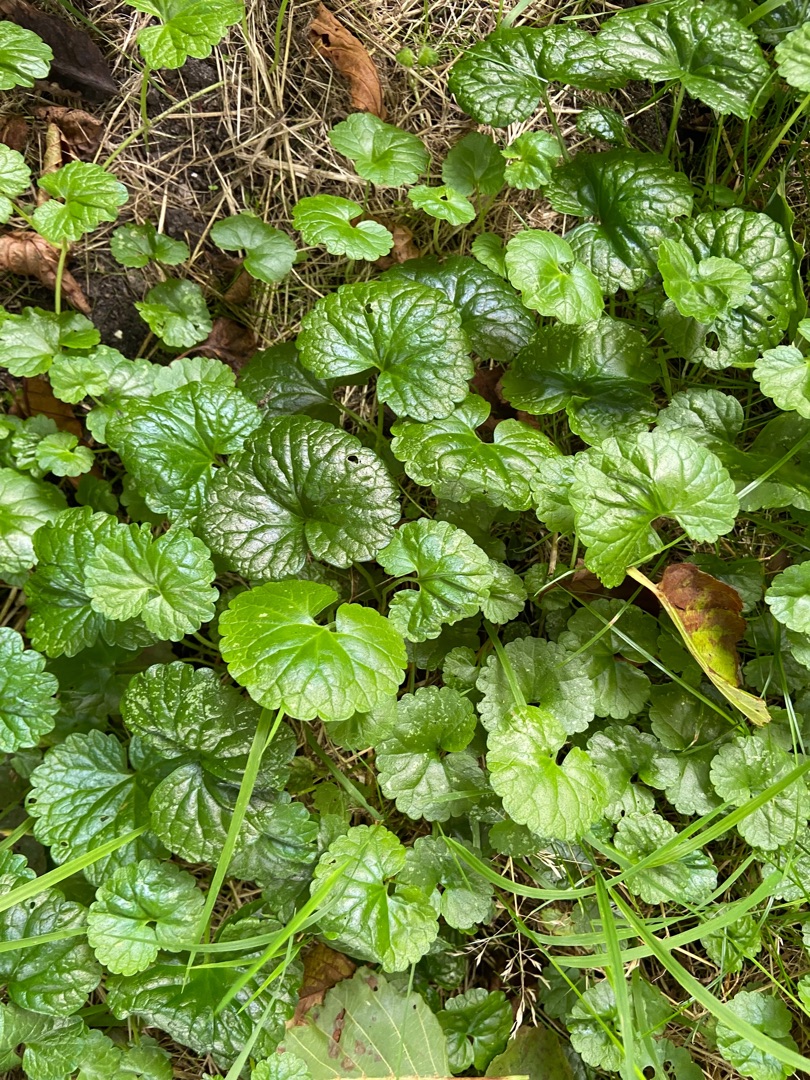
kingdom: Plantae
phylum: Tracheophyta
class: Magnoliopsida
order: Lamiales
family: Lamiaceae
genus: Glechoma
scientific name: Glechoma hederacea
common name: Korsknap
